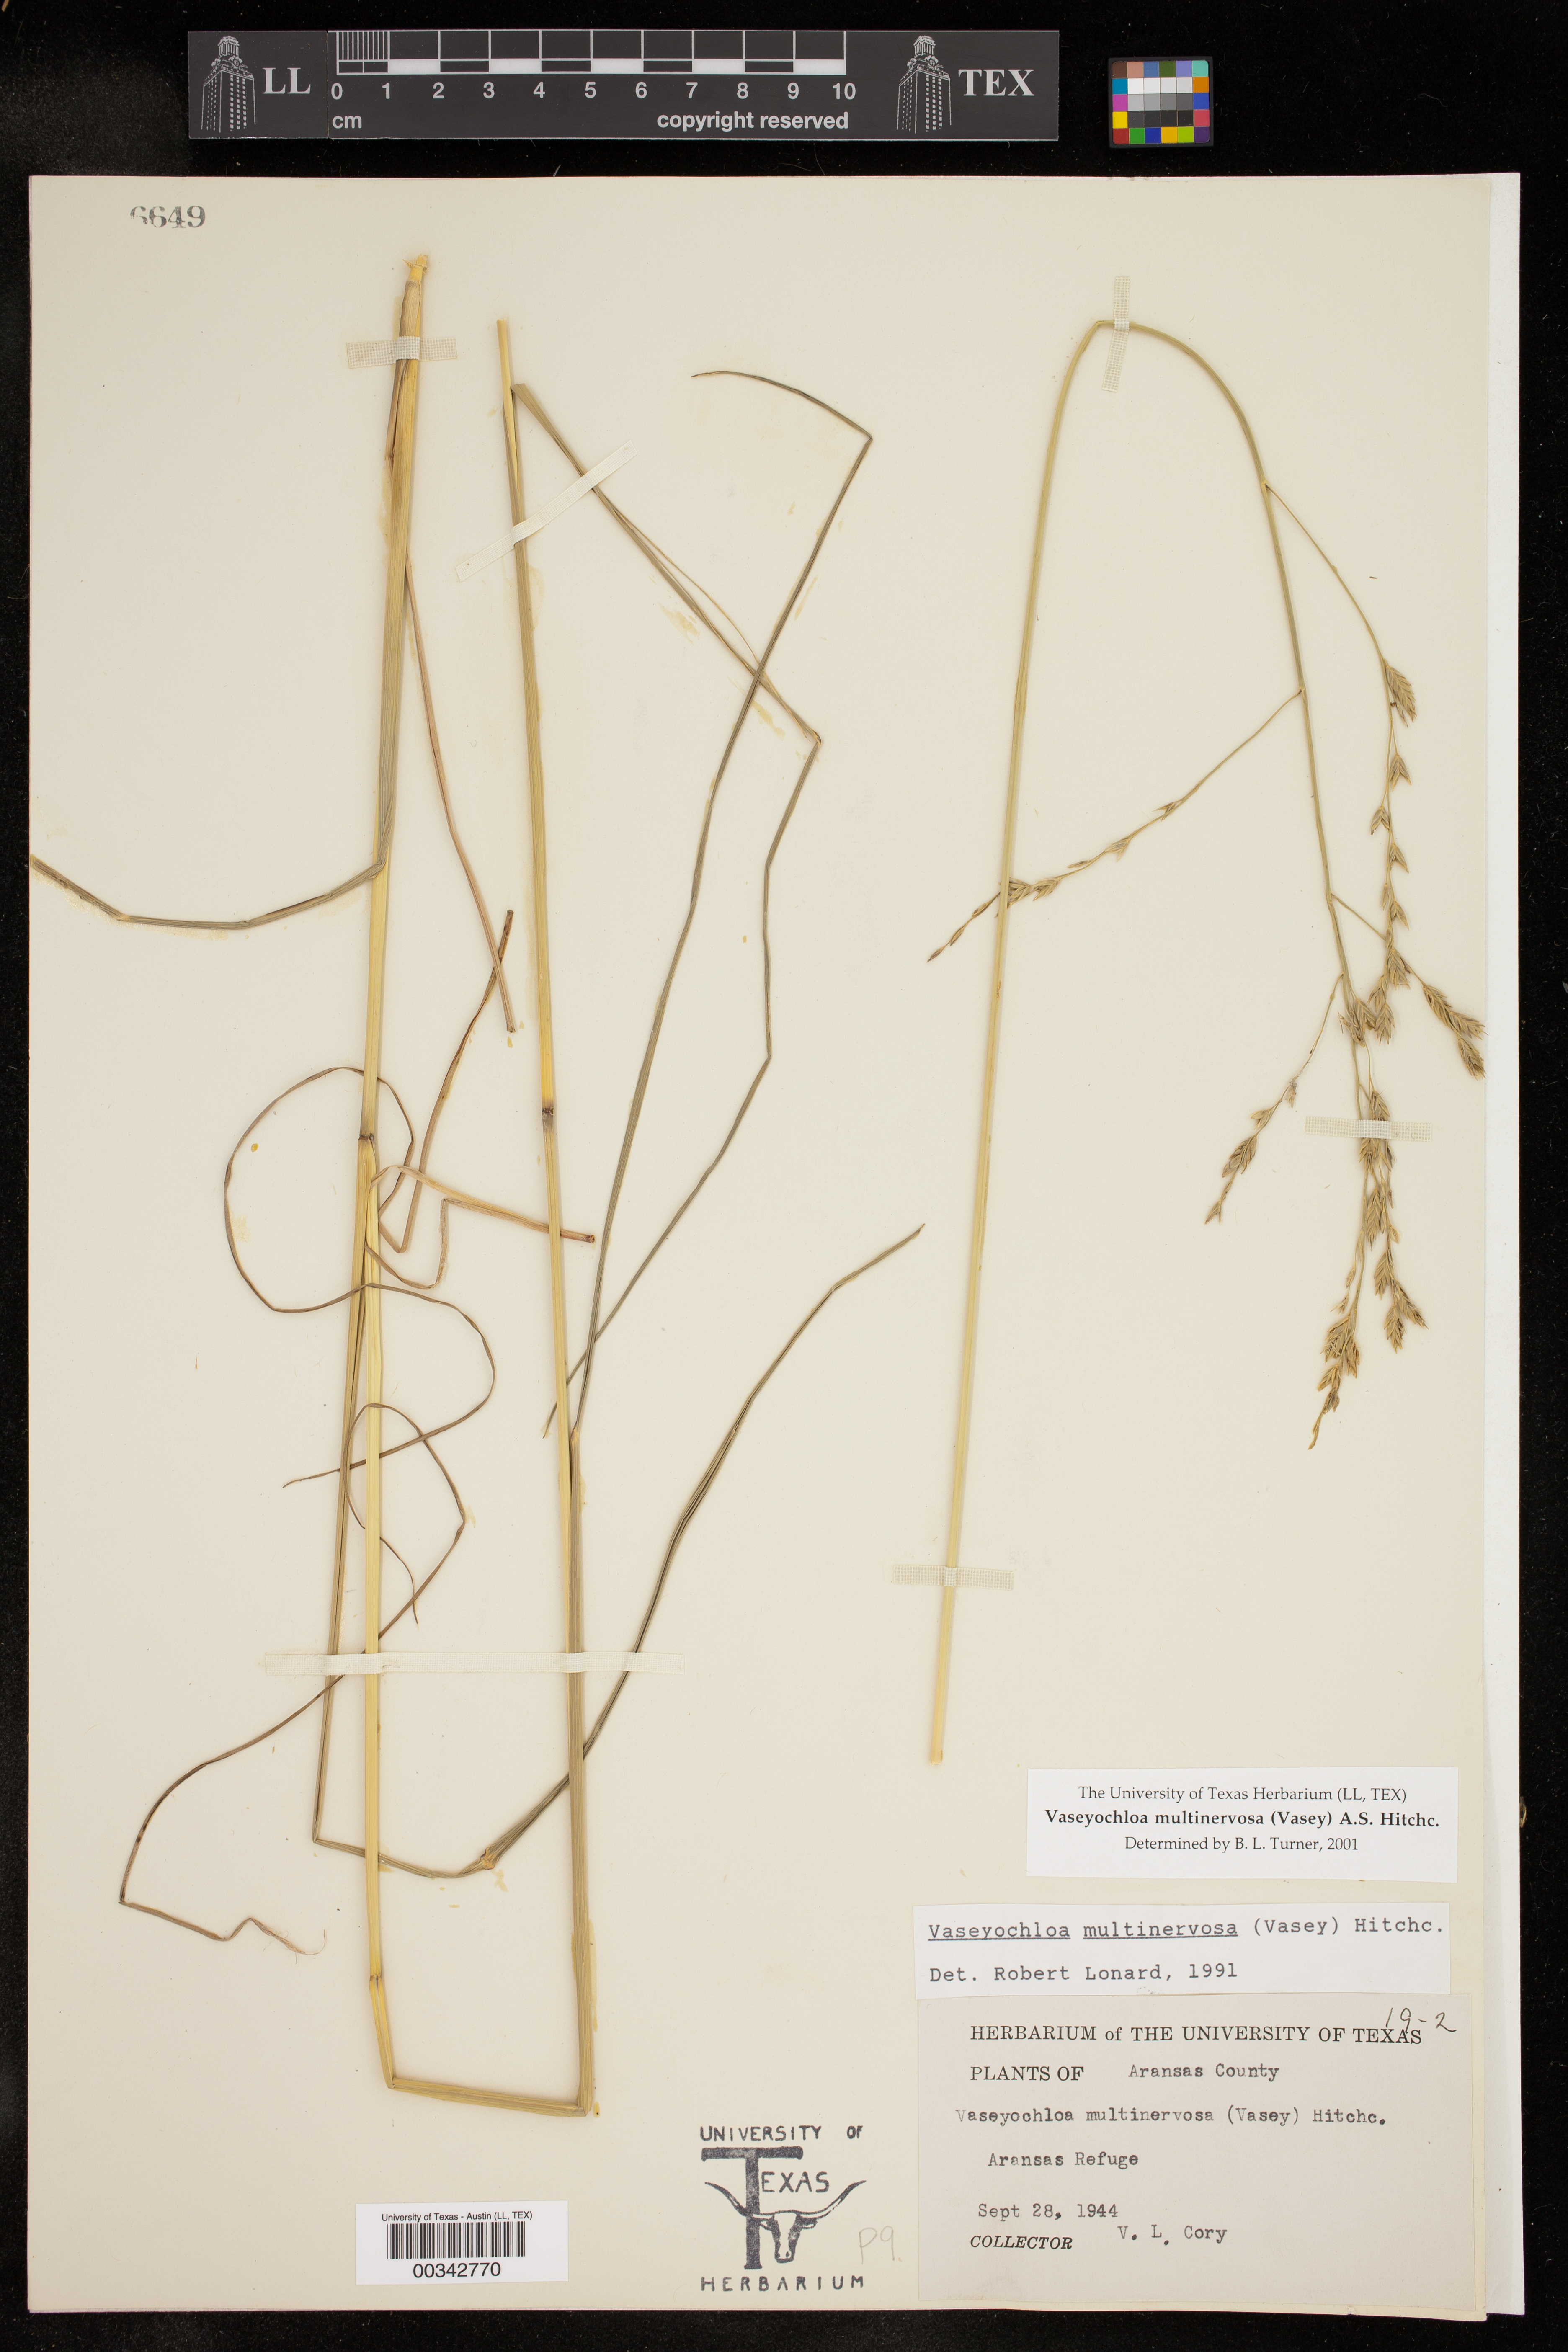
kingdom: Plantae
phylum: Tracheophyta
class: Liliopsida
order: Poales
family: Poaceae
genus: Vaseyochloa
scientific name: Vaseyochloa multinervosa
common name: Texas grass
